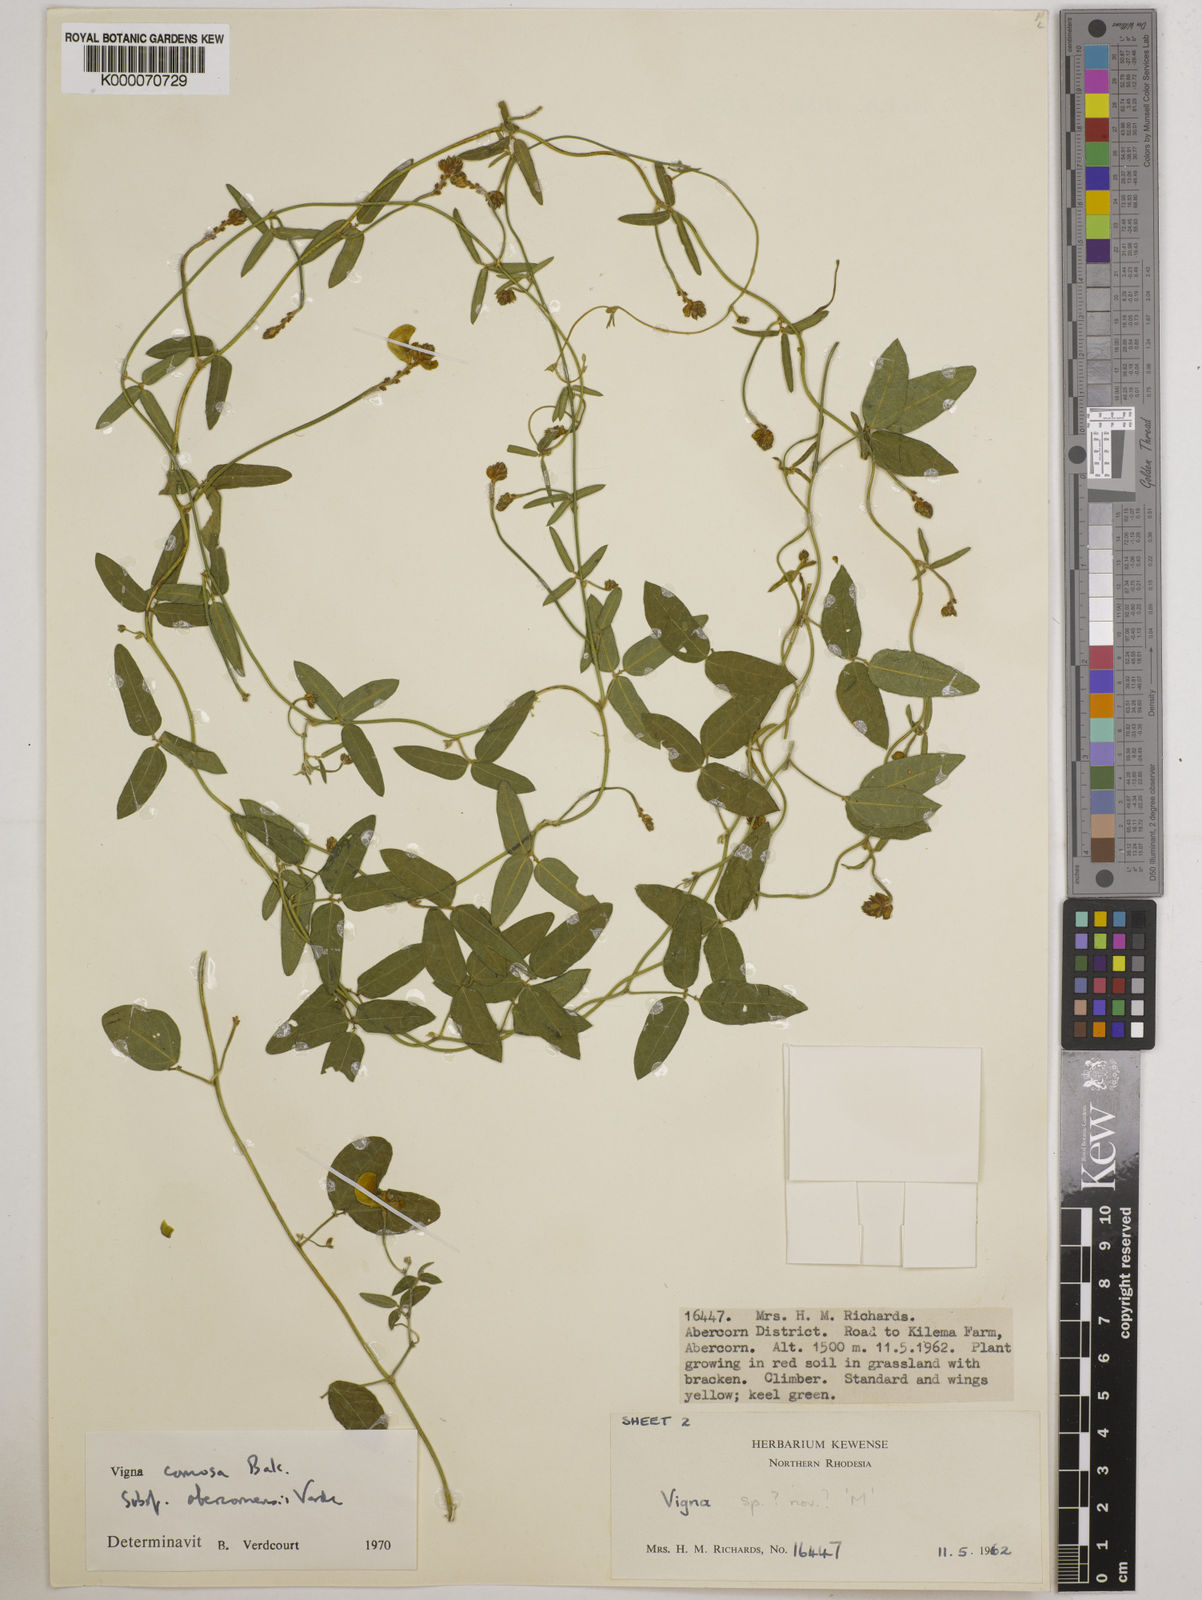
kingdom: Plantae
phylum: Tracheophyta
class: Magnoliopsida
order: Fabales
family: Fabaceae
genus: Vigna
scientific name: Vigna comosa
